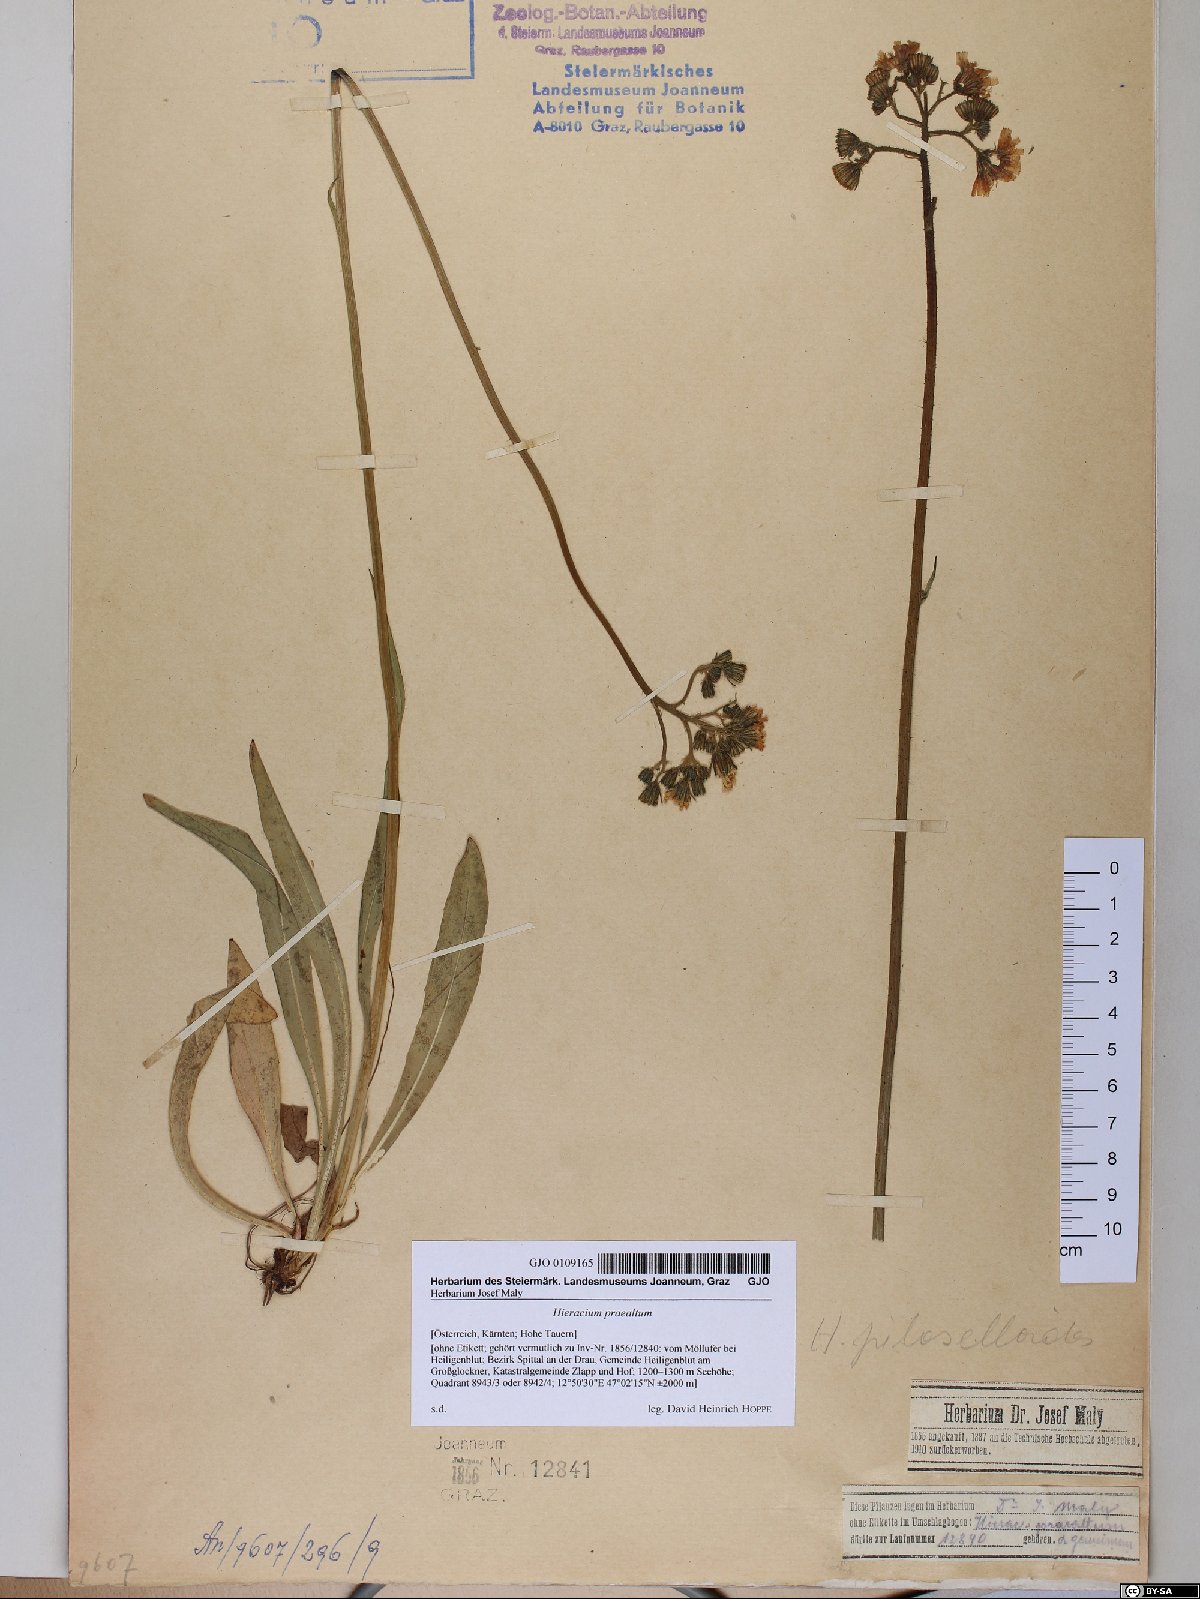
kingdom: Plantae
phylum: Tracheophyta
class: Magnoliopsida
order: Asterales
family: Asteraceae
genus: Pilosella
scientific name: Pilosella piloselloides
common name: Glaucous king-devil
